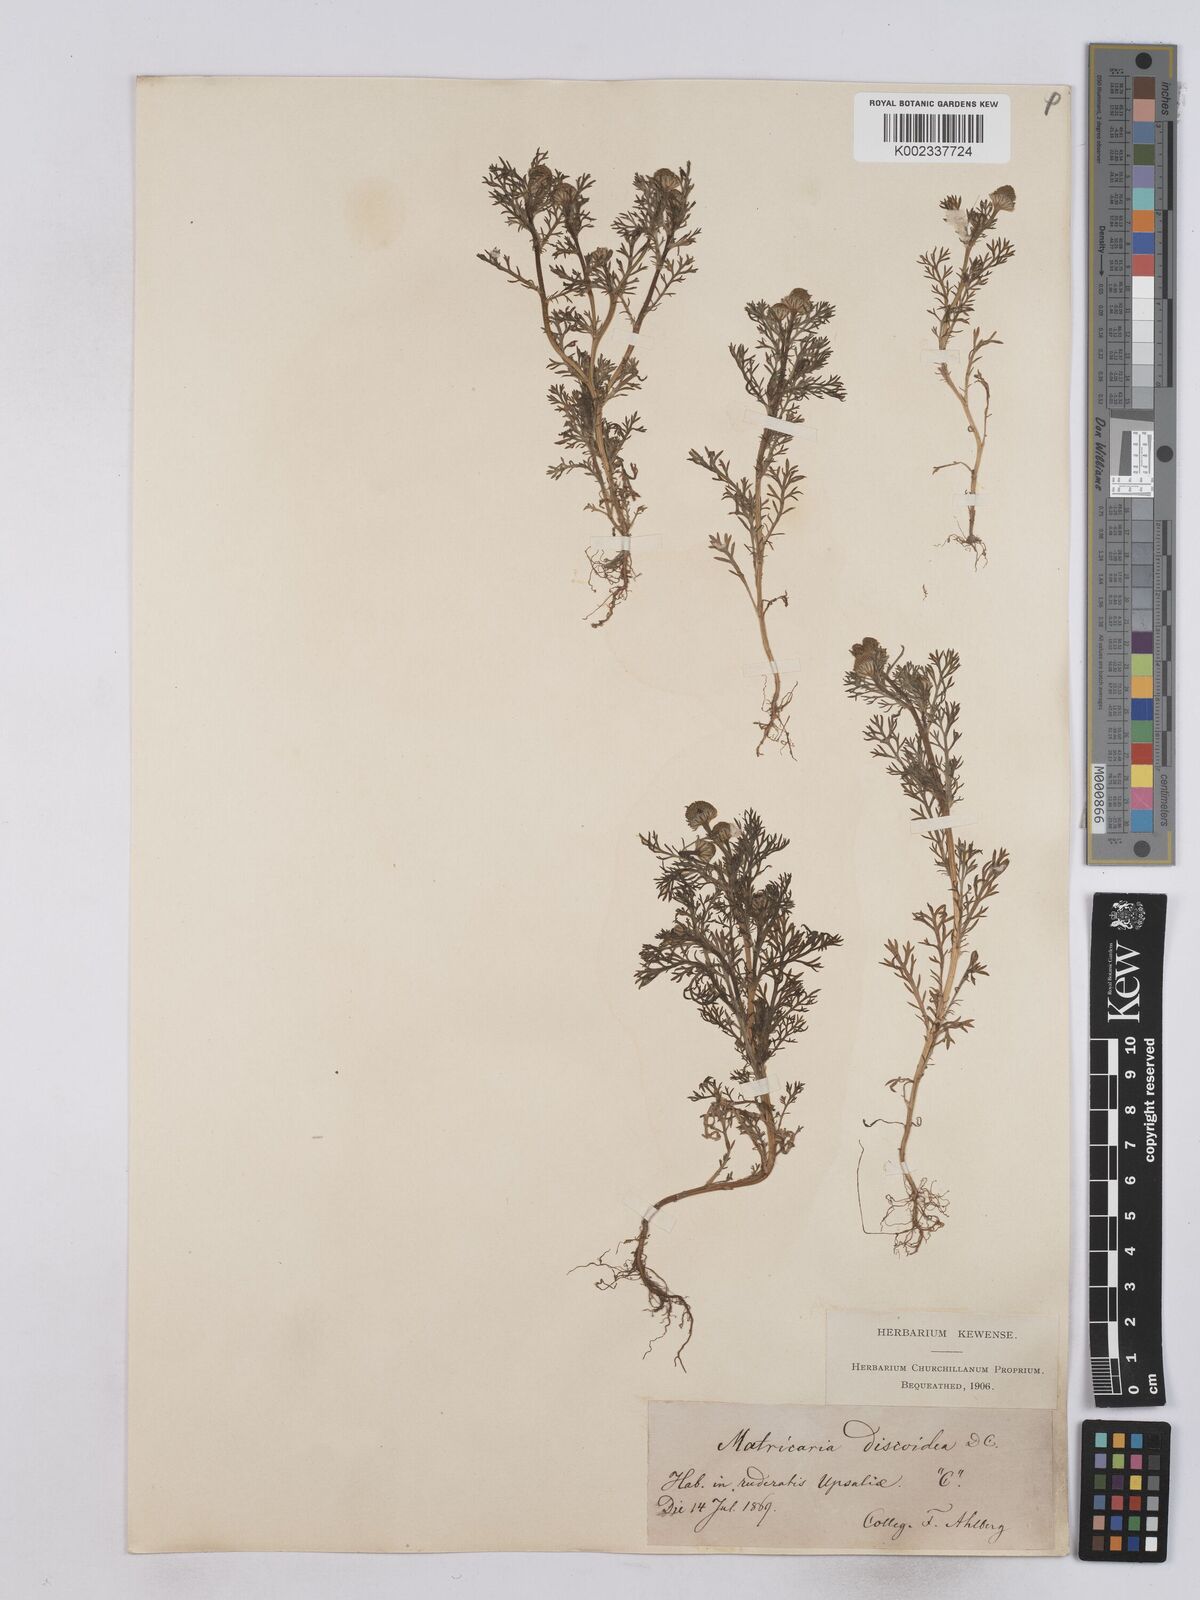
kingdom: Plantae
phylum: Tracheophyta
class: Magnoliopsida
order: Asterales
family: Asteraceae
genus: Matricaria
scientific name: Matricaria discoidea
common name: Disc mayweed
